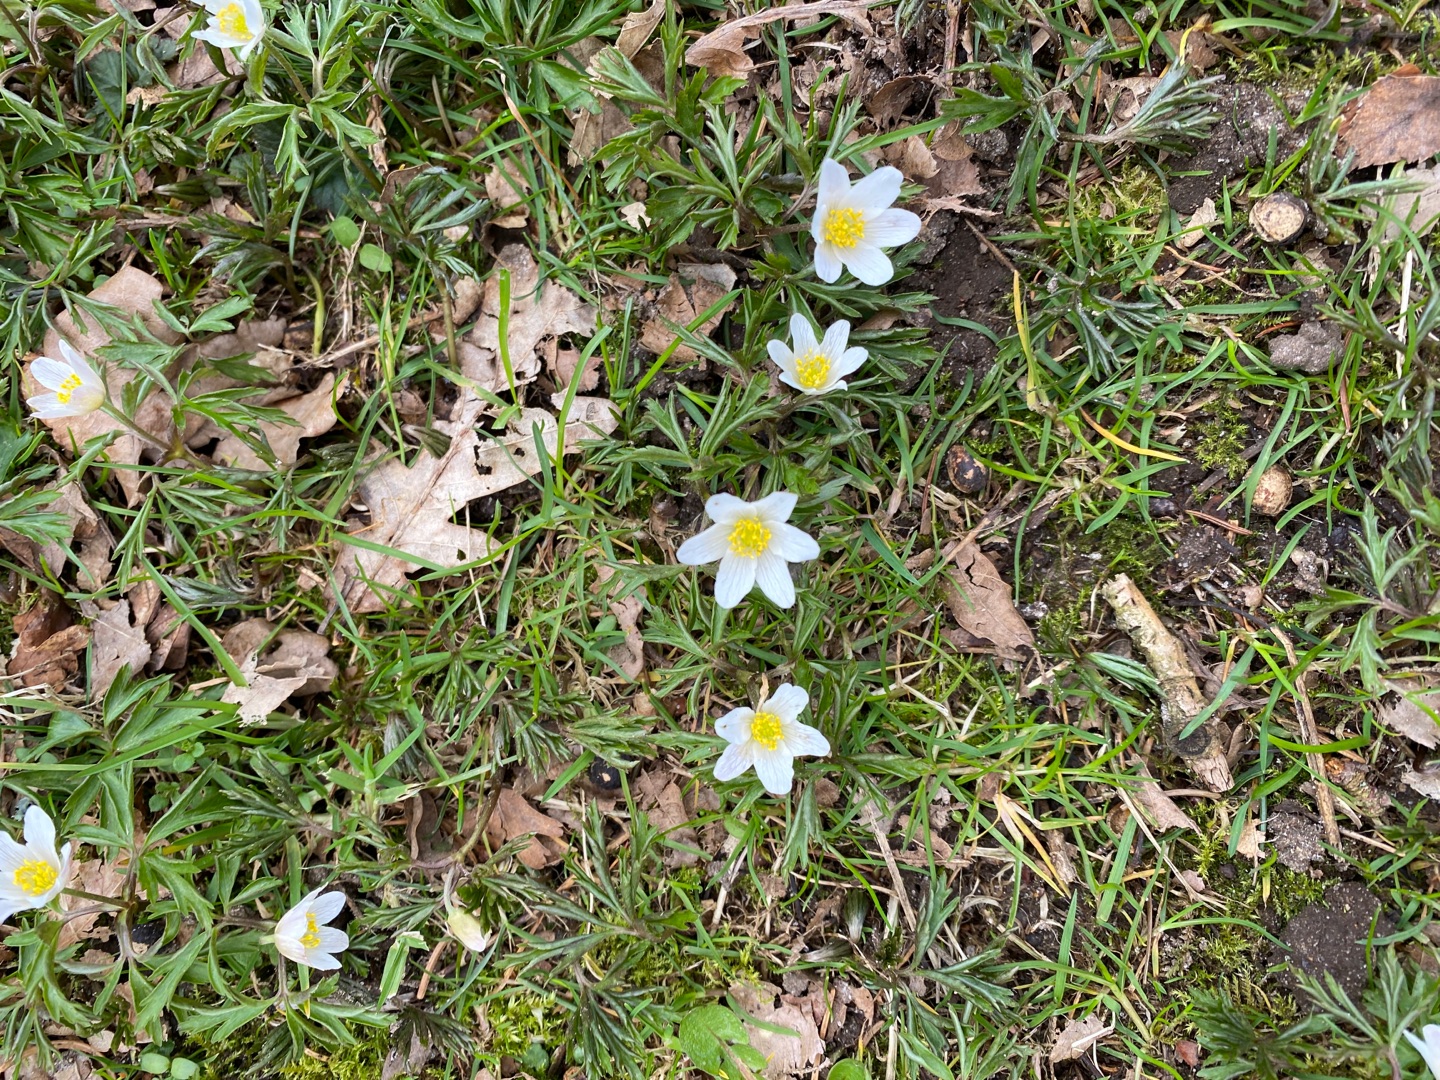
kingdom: Plantae
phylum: Tracheophyta
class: Magnoliopsida
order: Ranunculales
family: Ranunculaceae
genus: Anemone
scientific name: Anemone nemorosa
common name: Hvid anemone
